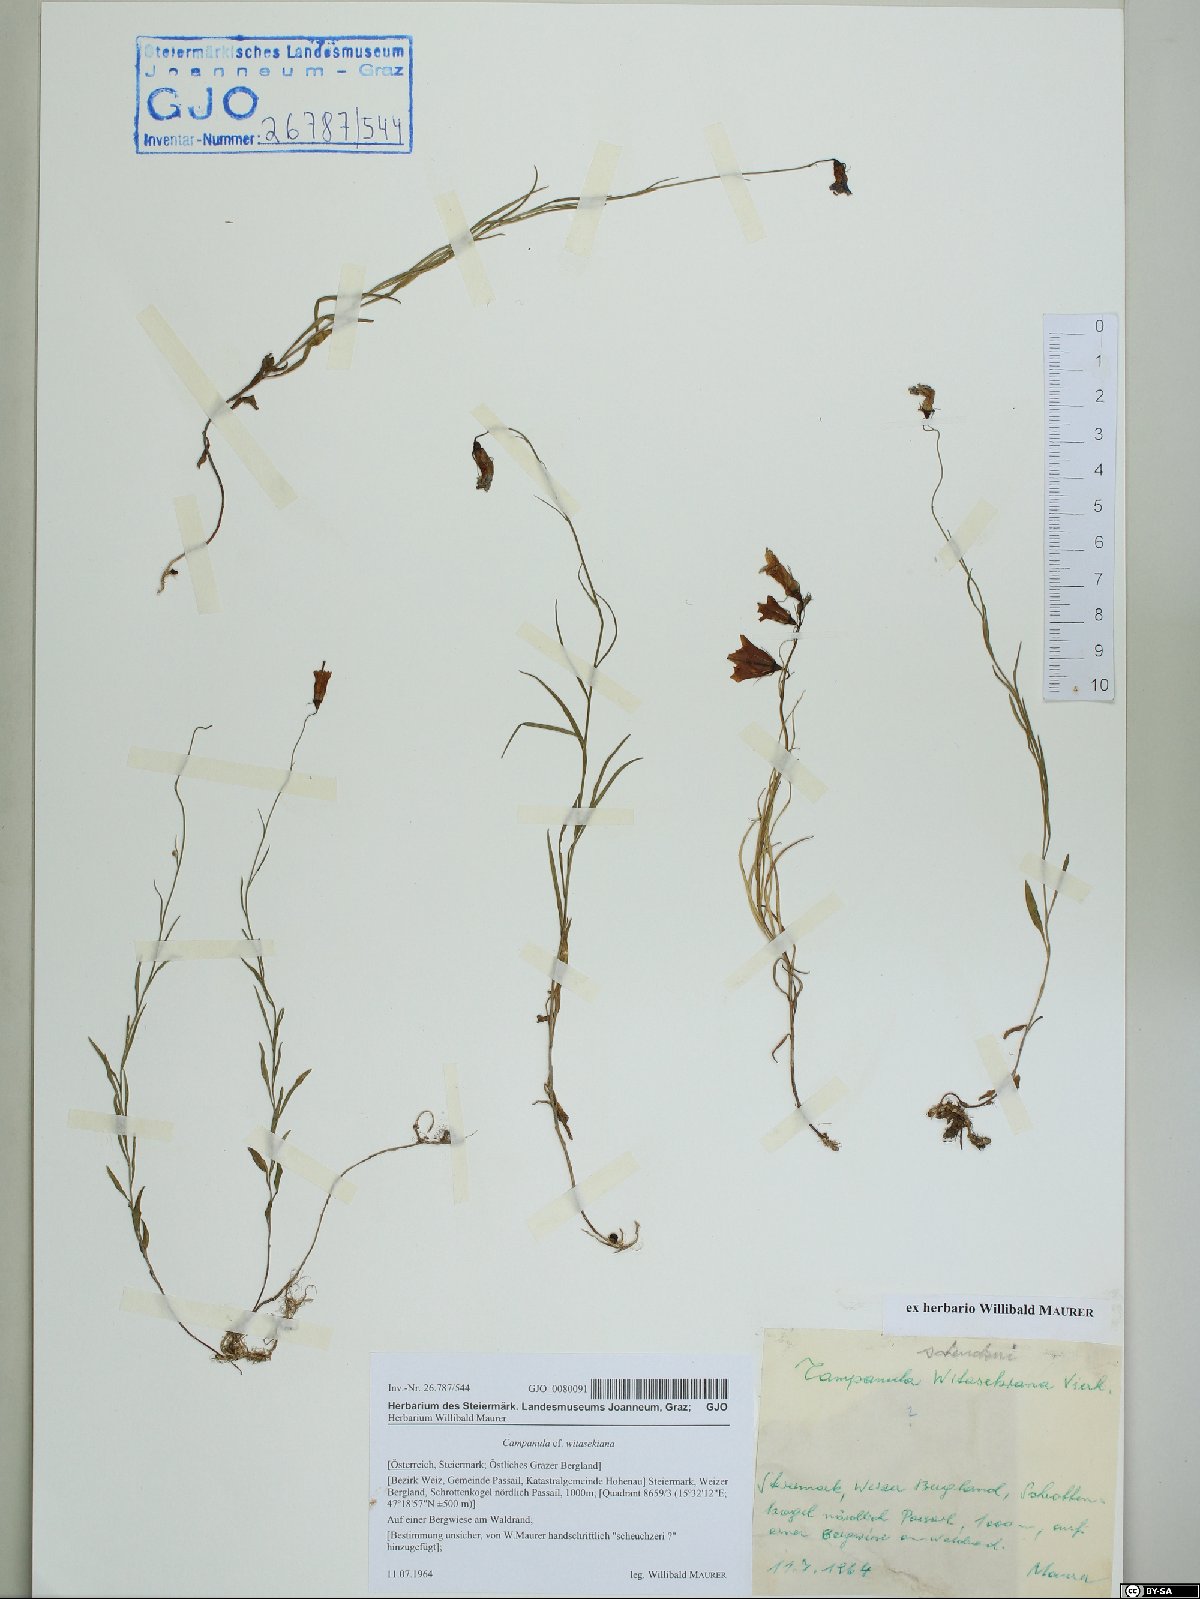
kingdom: Plantae
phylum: Tracheophyta
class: Magnoliopsida
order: Asterales
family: Campanulaceae
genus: Campanula
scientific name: Campanula witasekiana
